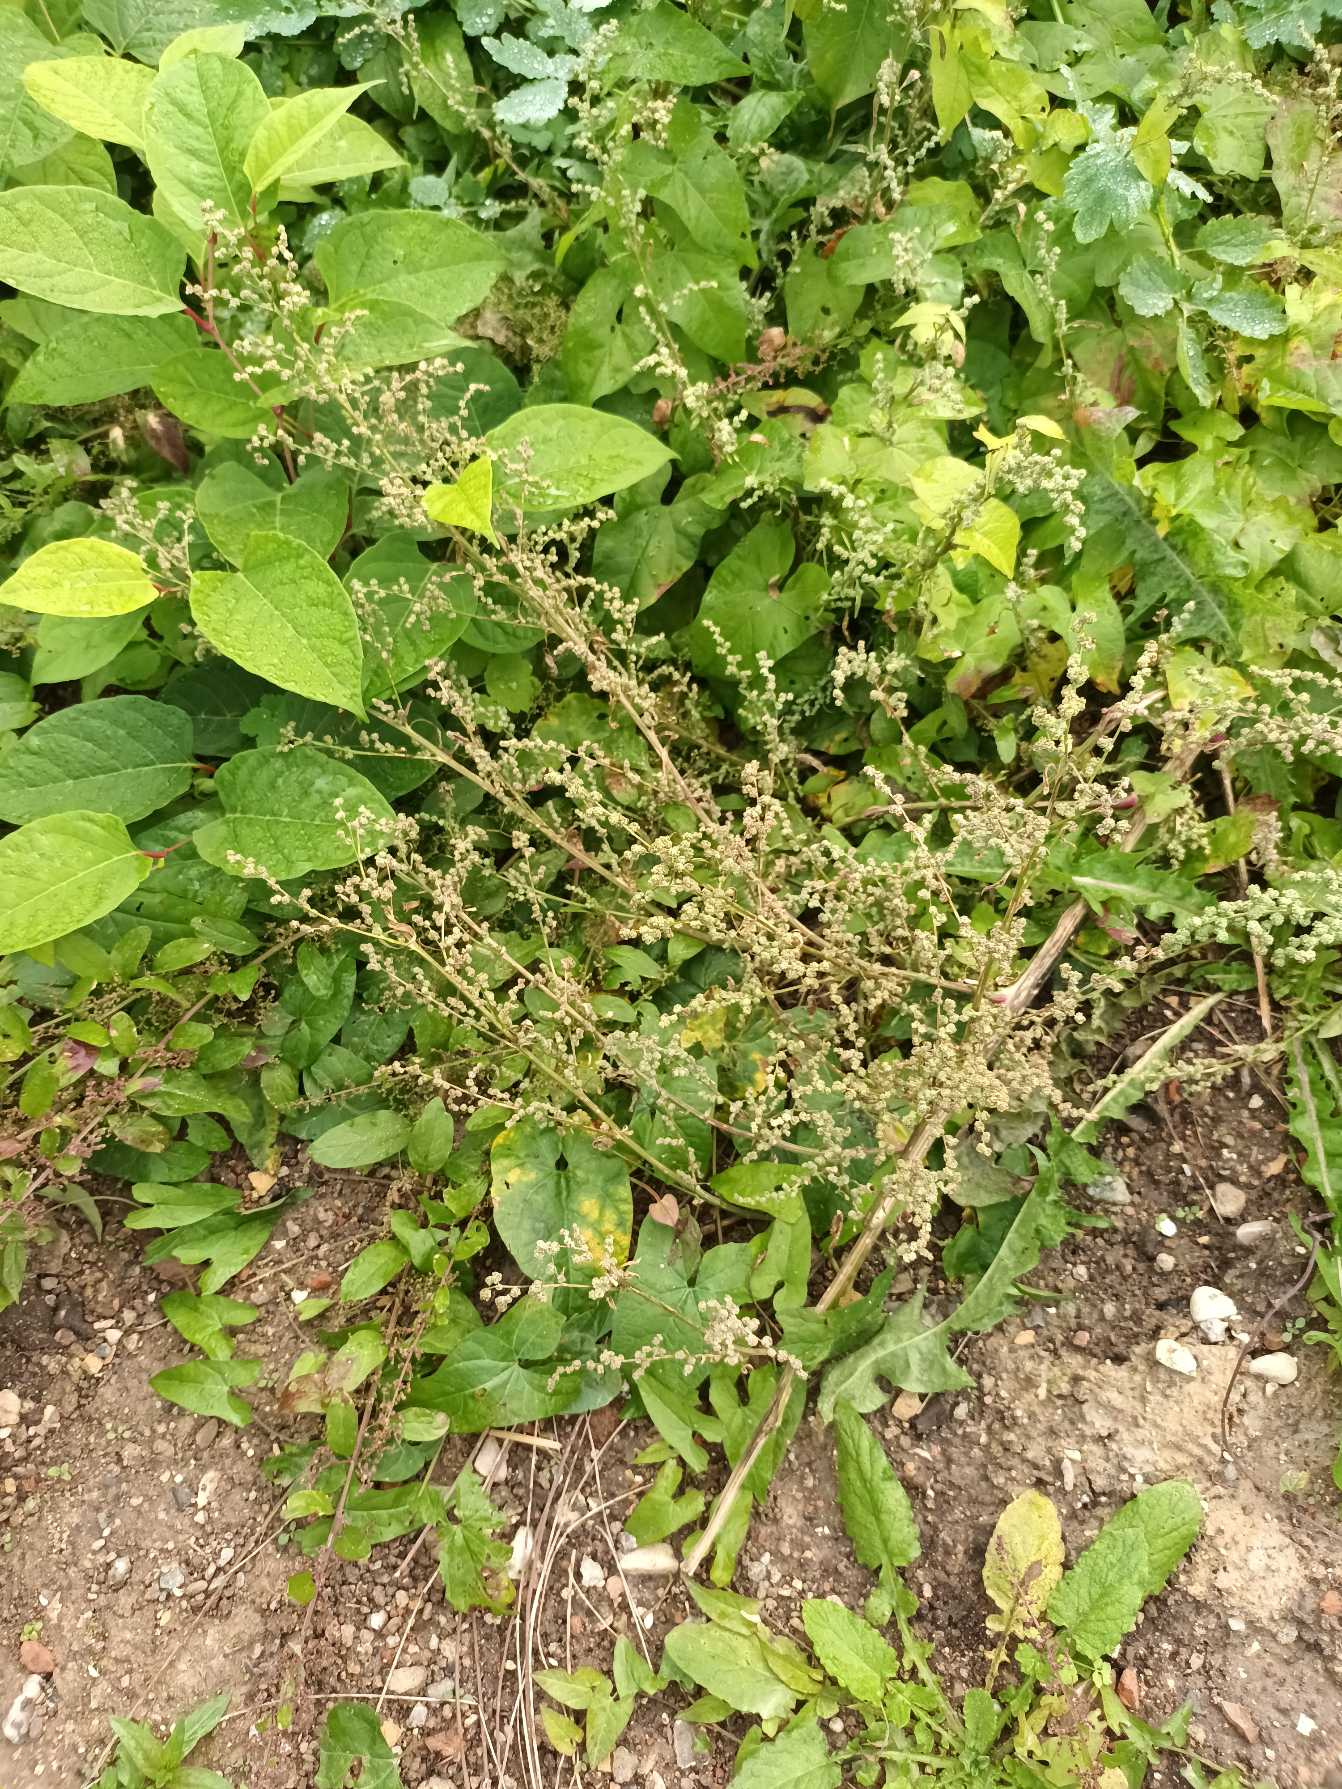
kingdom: Plantae
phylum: Tracheophyta
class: Magnoliopsida
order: Caryophyllales
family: Amaranthaceae
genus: Chenopodium
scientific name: Chenopodium album
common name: Hvidmelet gåsefod
